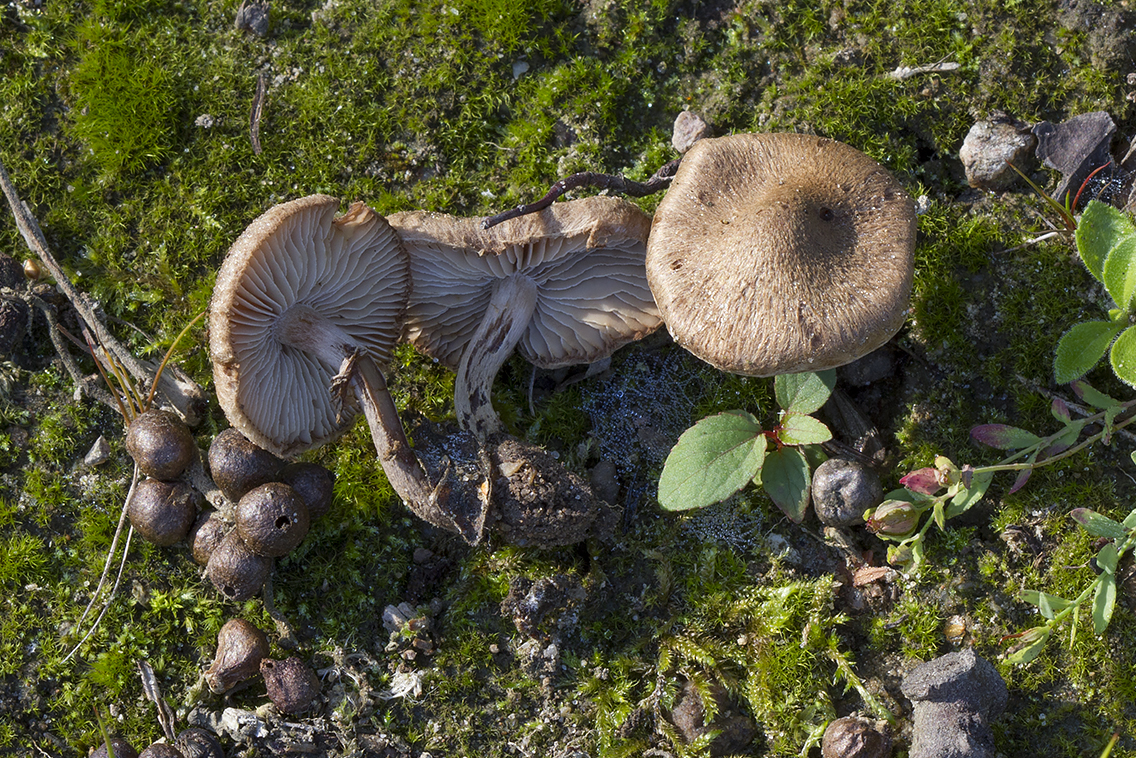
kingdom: Fungi
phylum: Basidiomycota
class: Agaricomycetes
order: Agaricales
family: Inocybaceae
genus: Inocybe
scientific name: Inocybe lacera
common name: laset trævlhat
